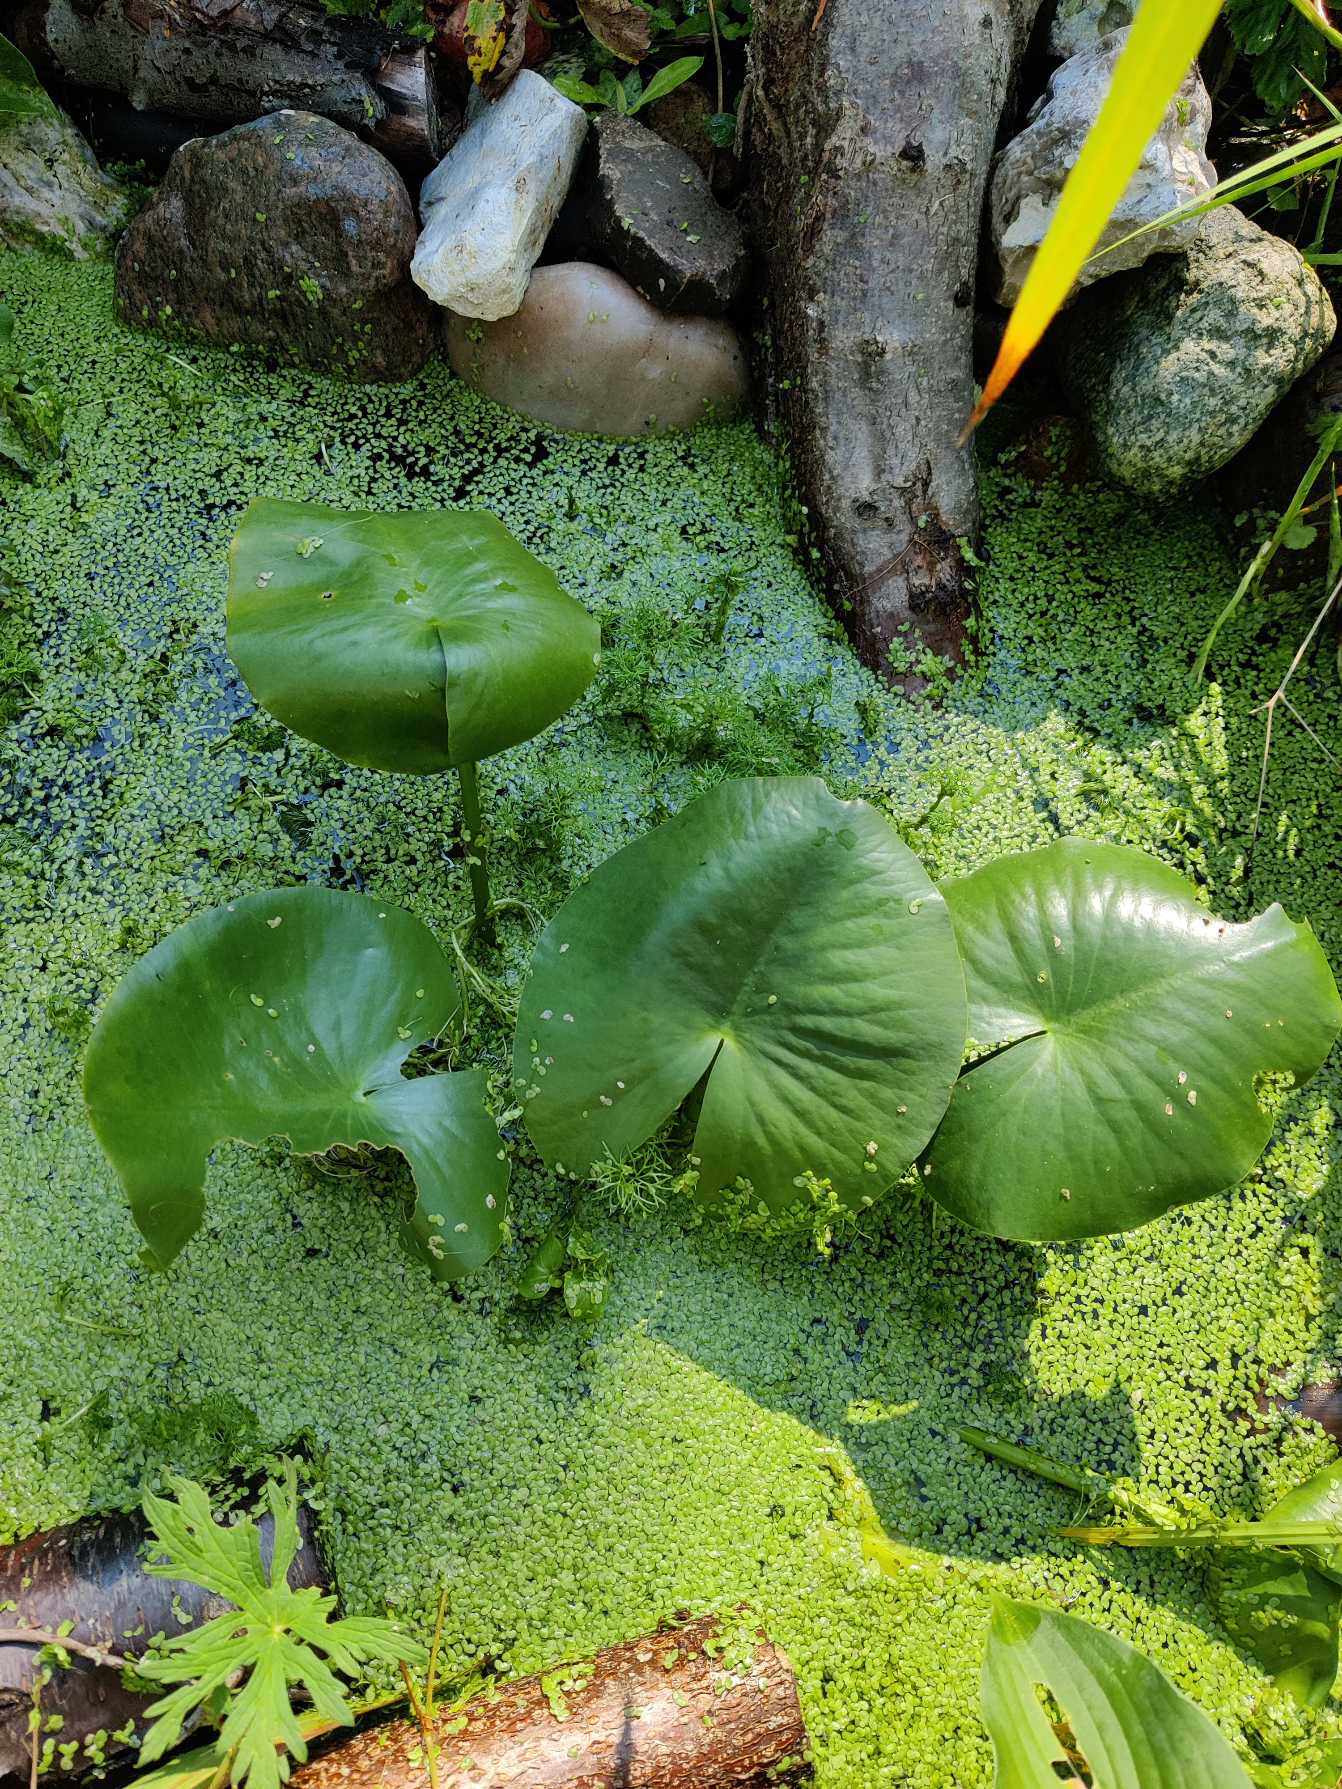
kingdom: Plantae
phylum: Tracheophyta
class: Magnoliopsida
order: Nymphaeales
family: Nymphaeaceae
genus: Nymphaea
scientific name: Nymphaea alba
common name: Hvid åkande
